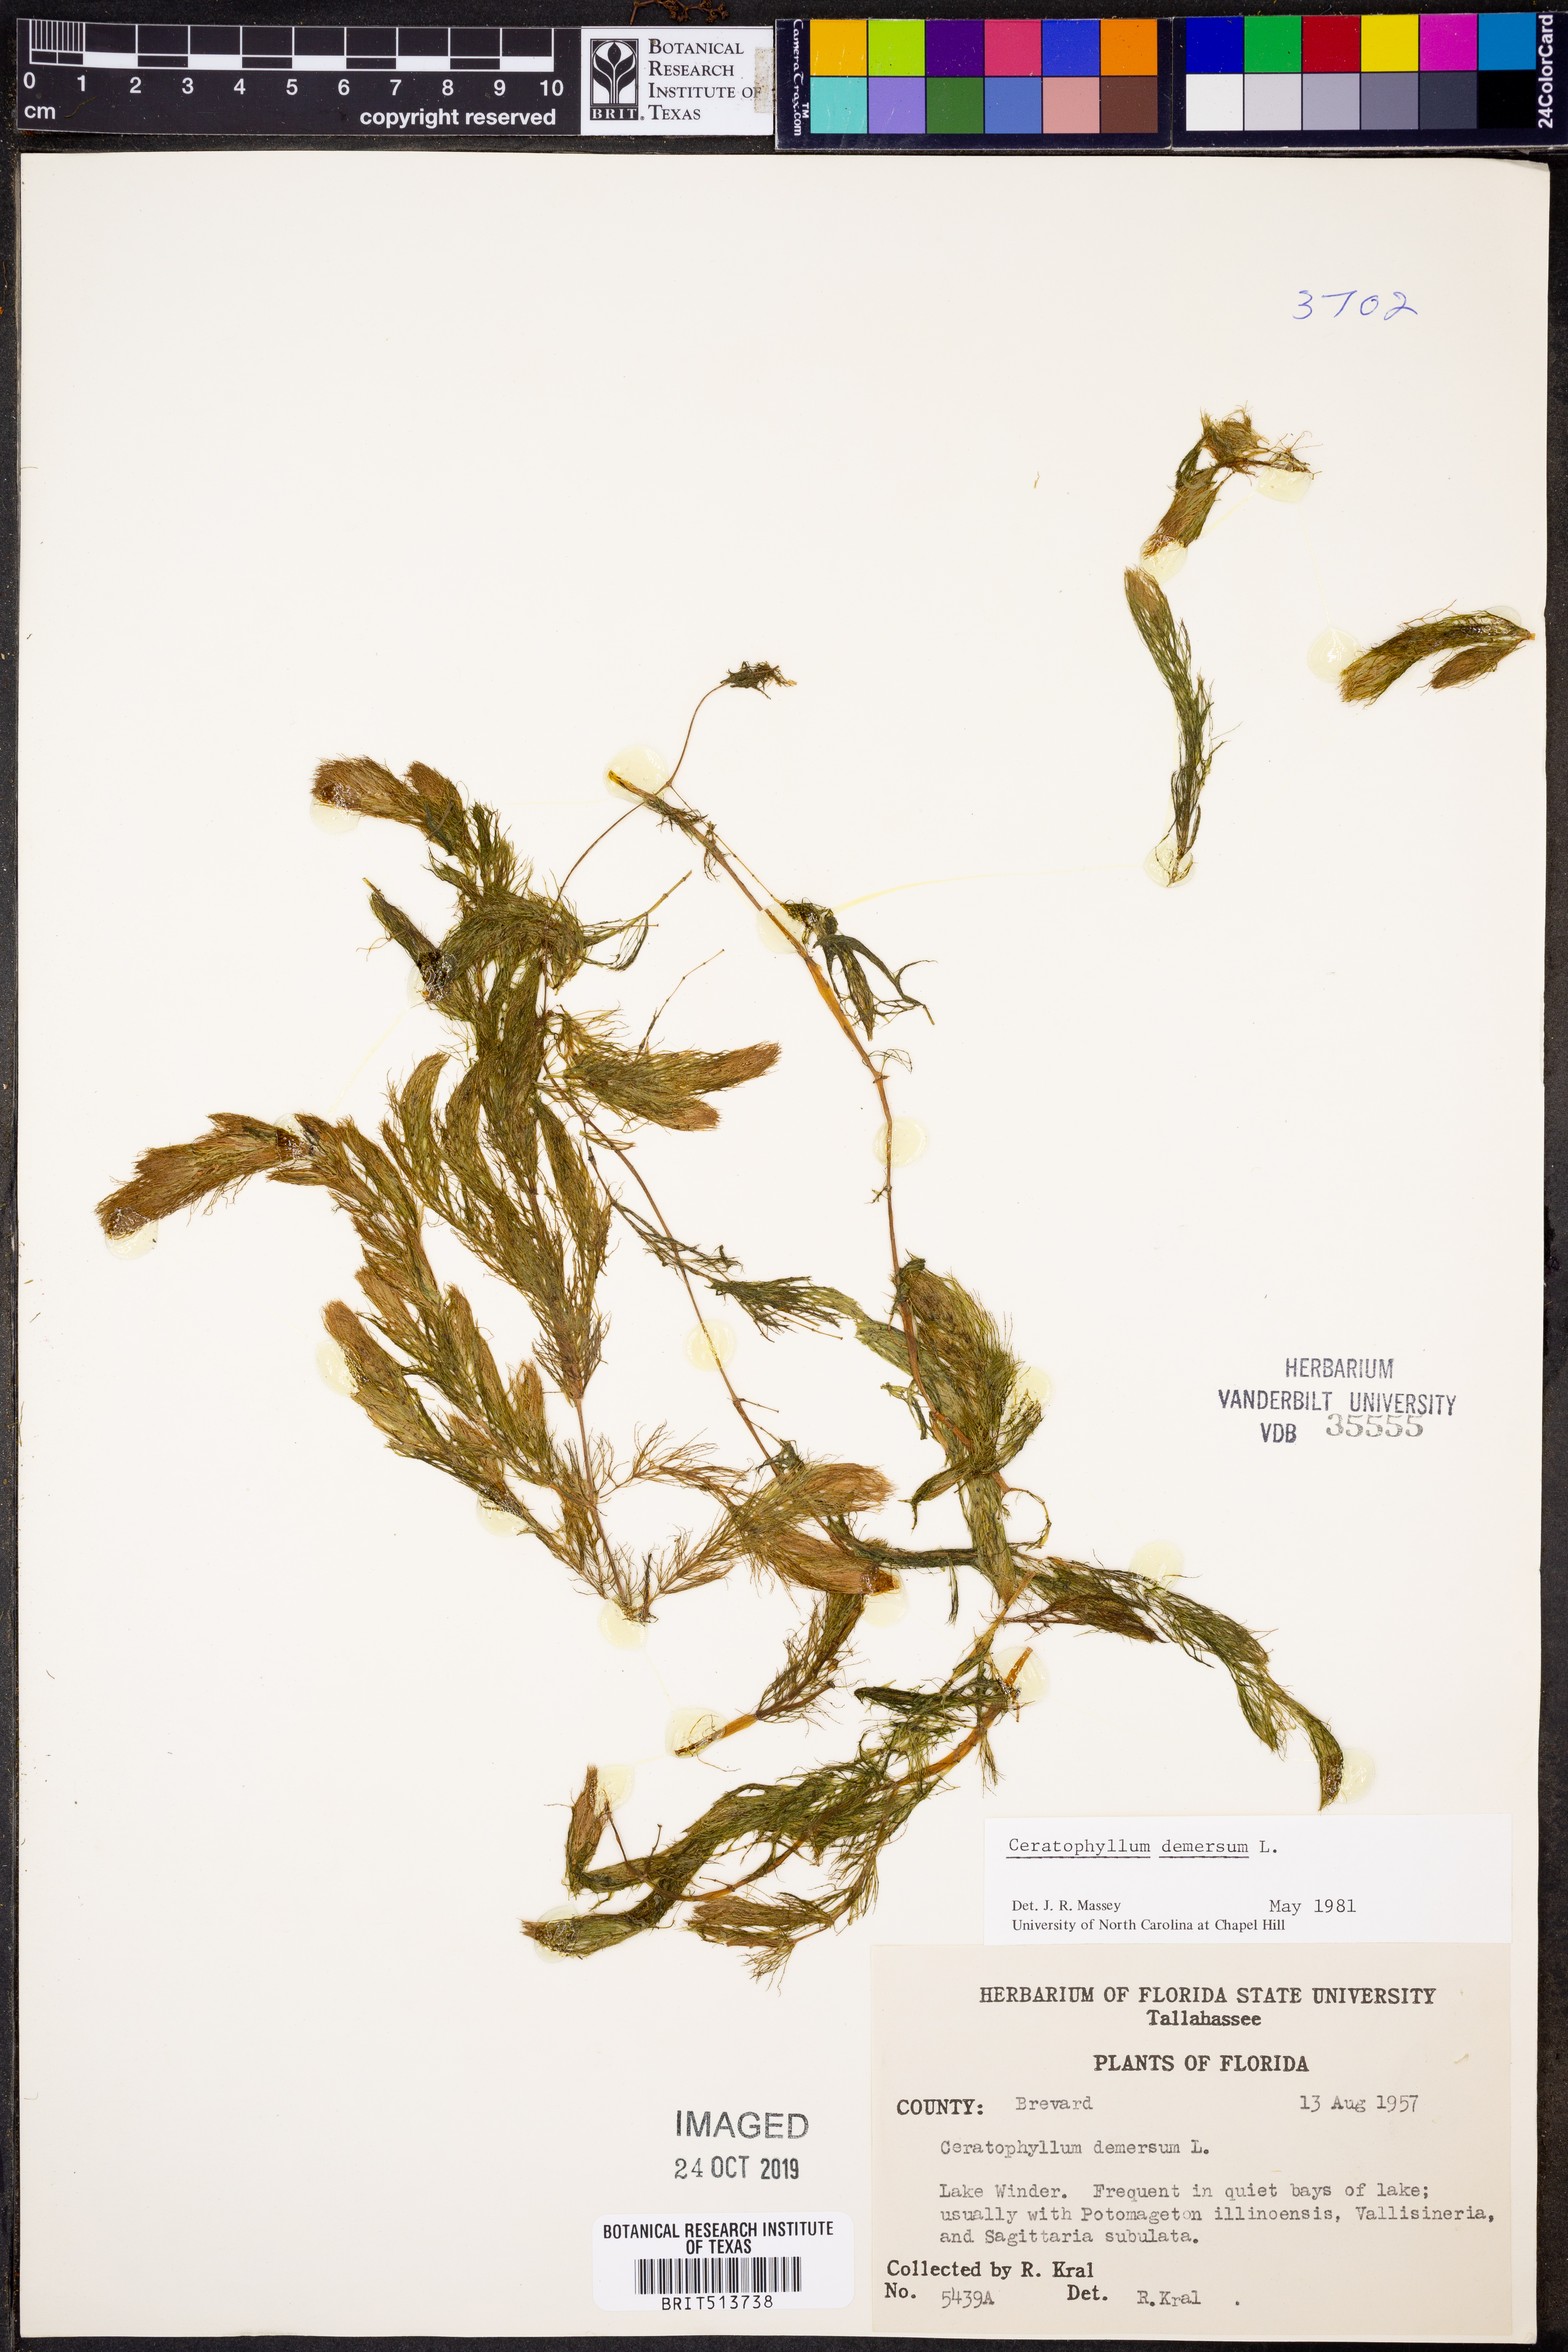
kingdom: Plantae
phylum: Tracheophyta
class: Magnoliopsida
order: Ceratophyllales
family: Ceratophyllaceae
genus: Ceratophyllum
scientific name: Ceratophyllum demersum
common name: Rigid hornwort
